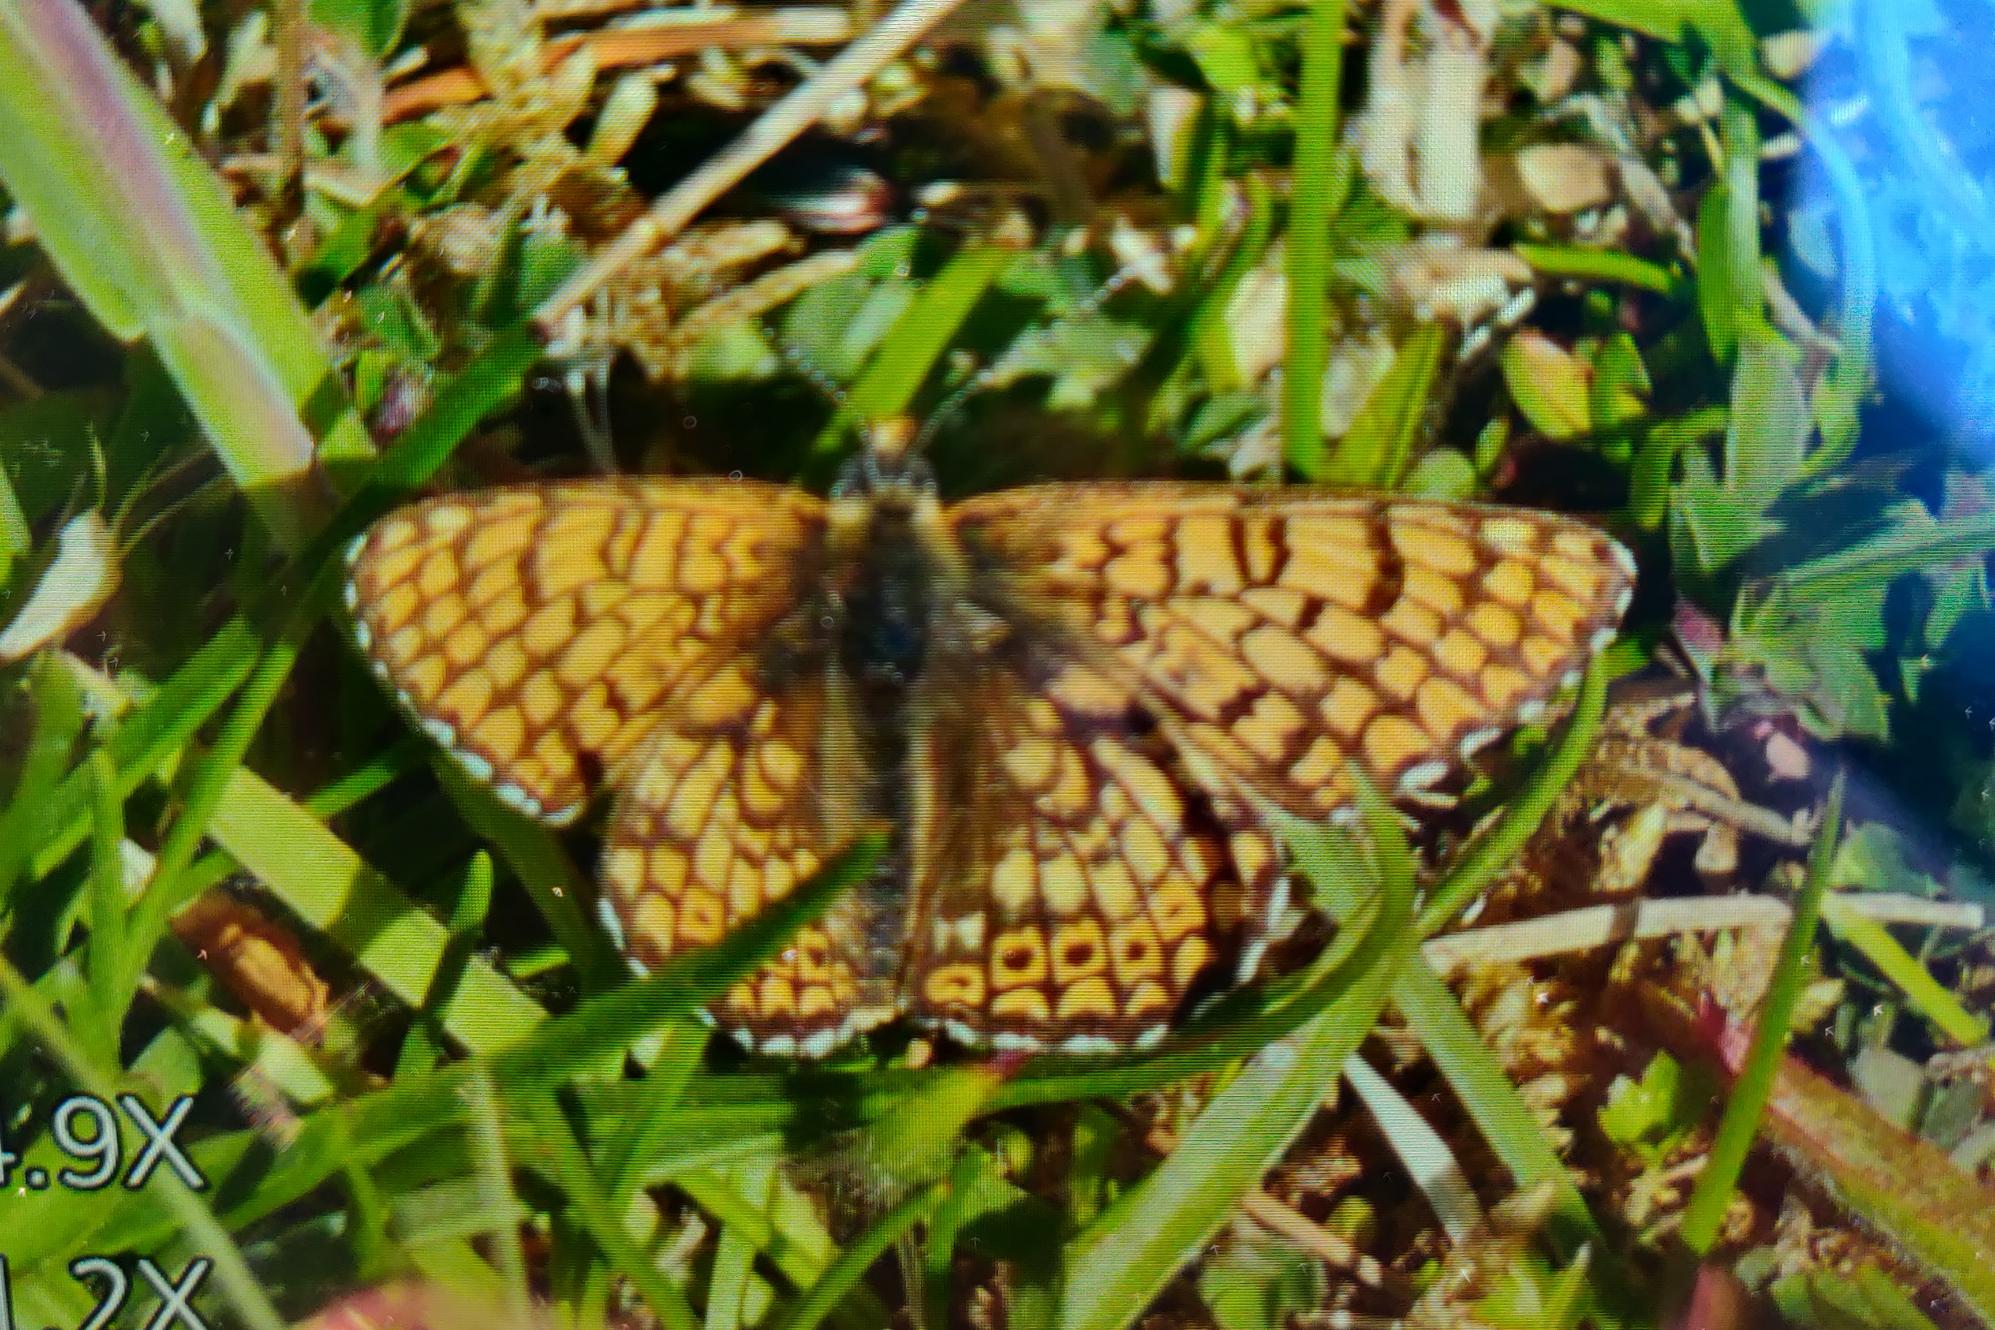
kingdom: Animalia
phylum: Arthropoda
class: Insecta
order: Lepidoptera
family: Nymphalidae
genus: Melitaea
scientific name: Melitaea cinxia
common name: Okkergul pletvinge
